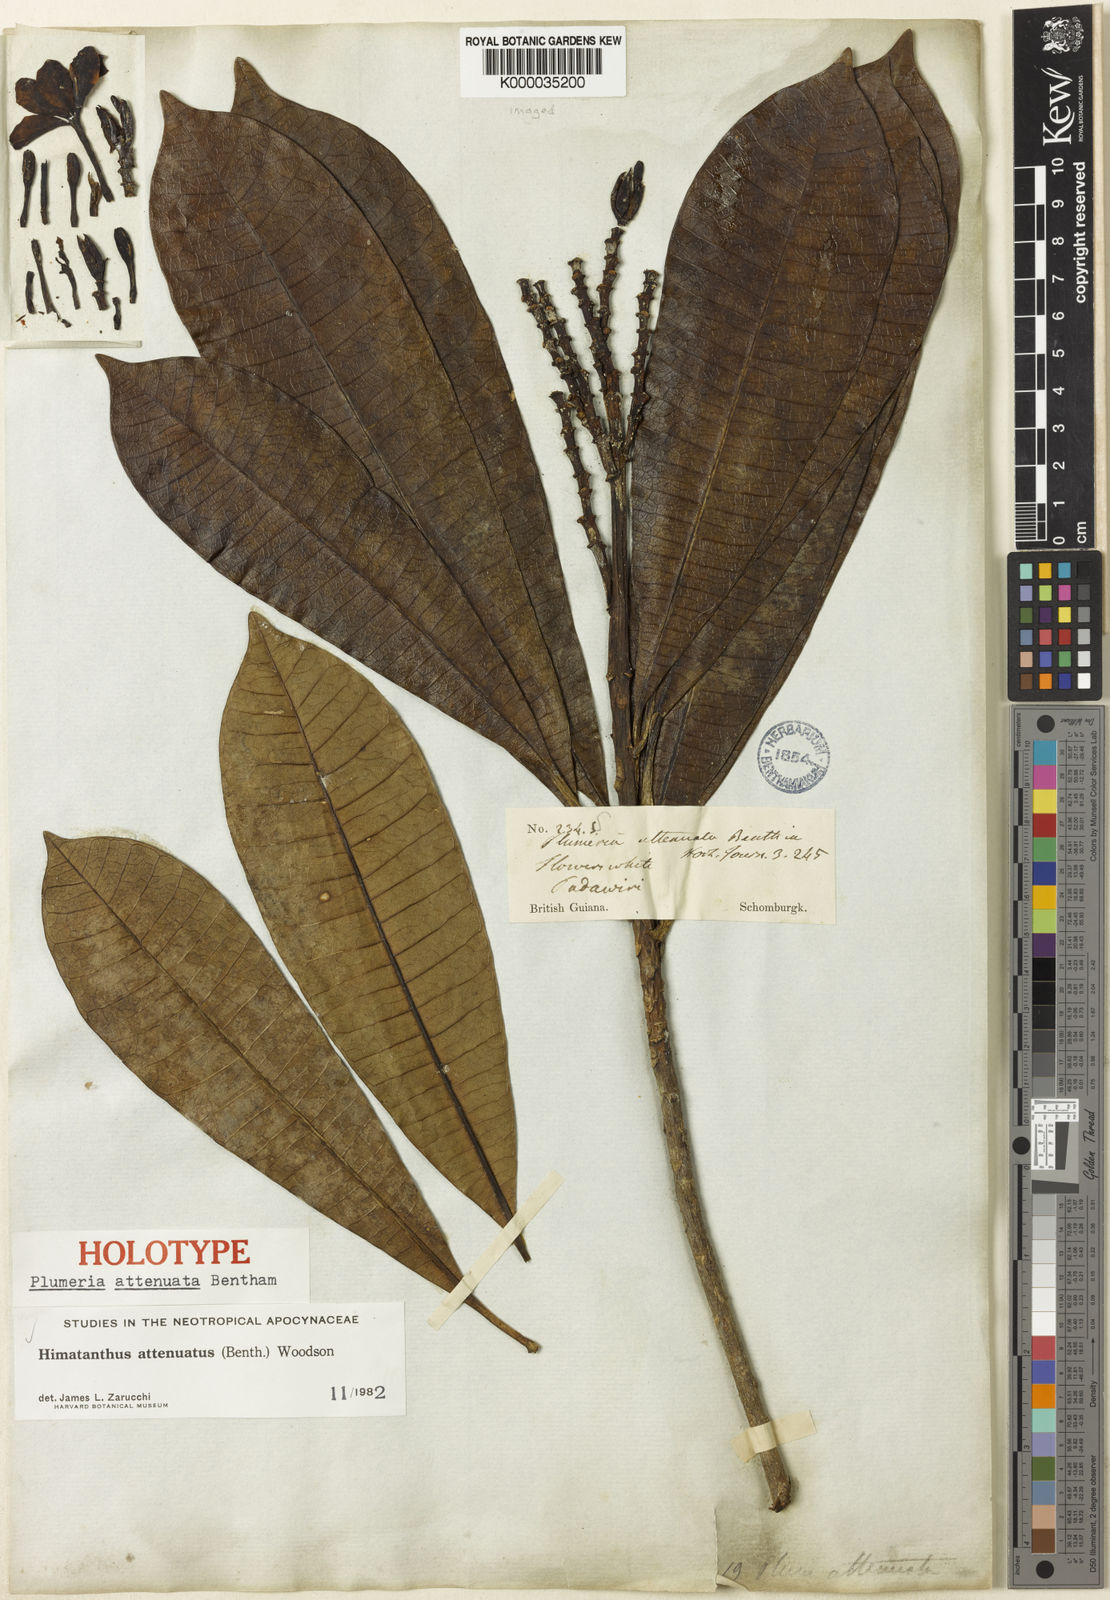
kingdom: Plantae
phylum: Tracheophyta
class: Magnoliopsida
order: Gentianales
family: Apocynaceae
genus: Himatanthus
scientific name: Himatanthus attenuatus
